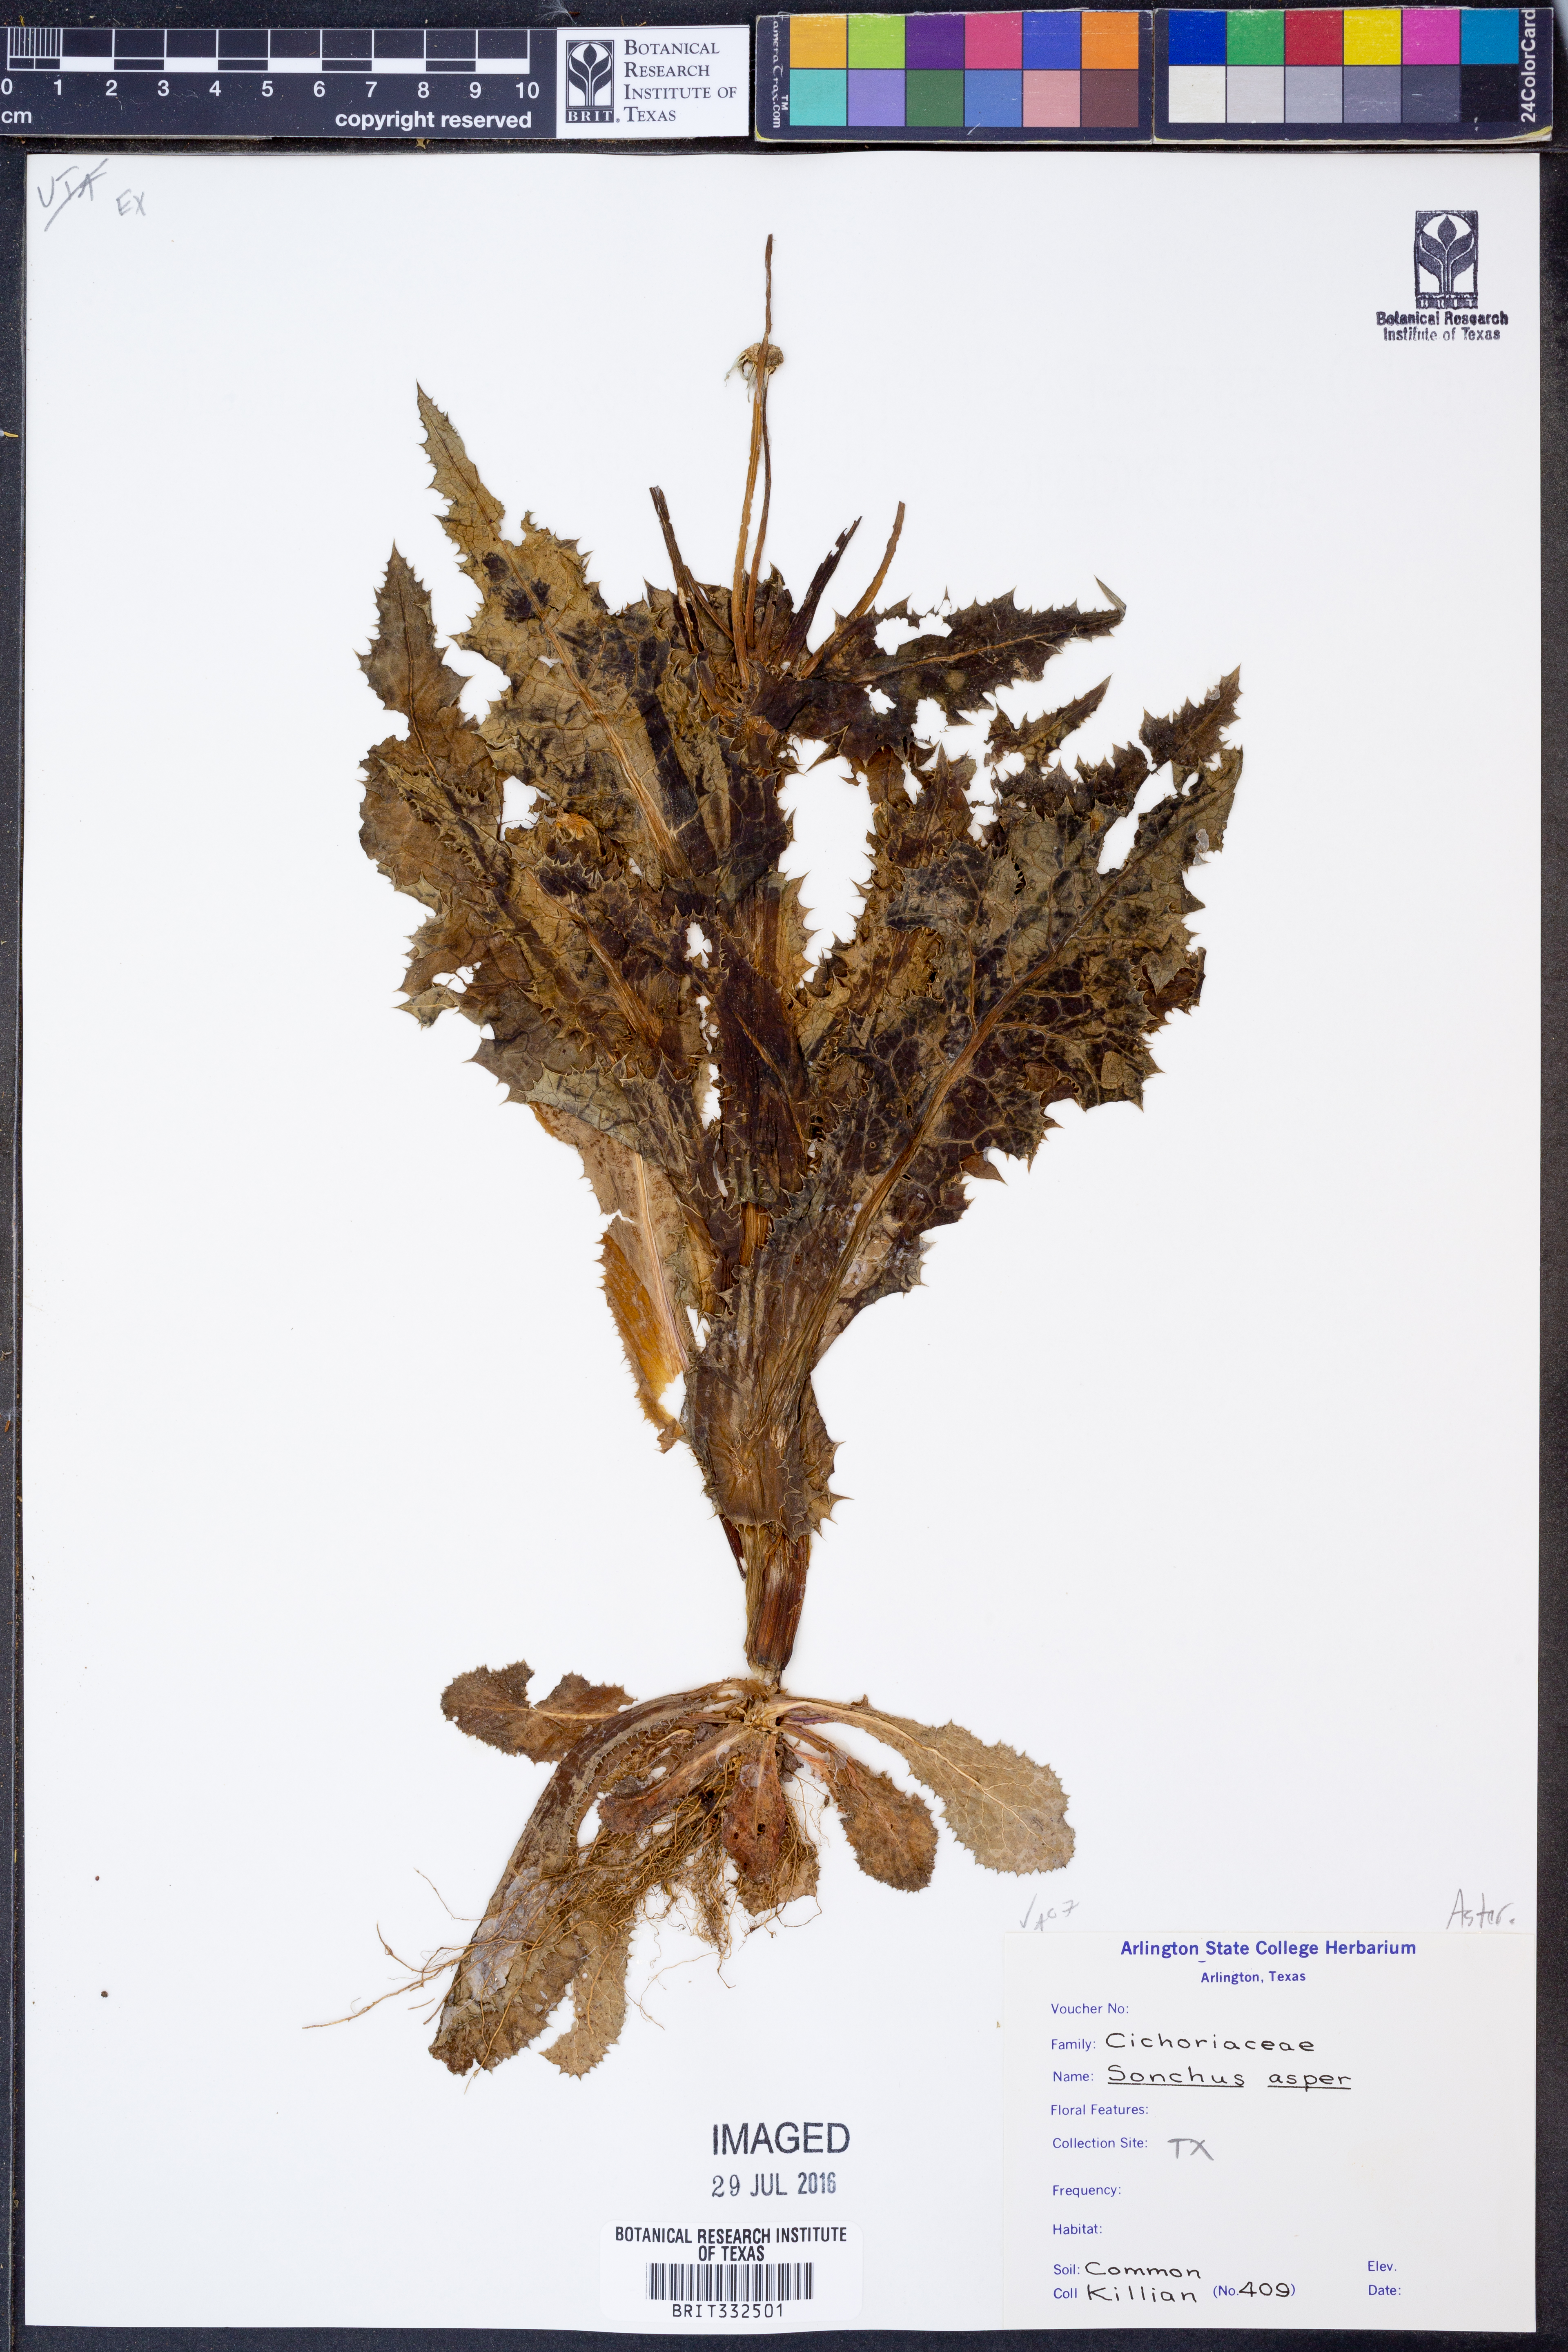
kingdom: Plantae
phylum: Tracheophyta
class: Magnoliopsida
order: Asterales
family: Asteraceae
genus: Sonchus
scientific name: Sonchus asper
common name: Prickly sow-thistle
